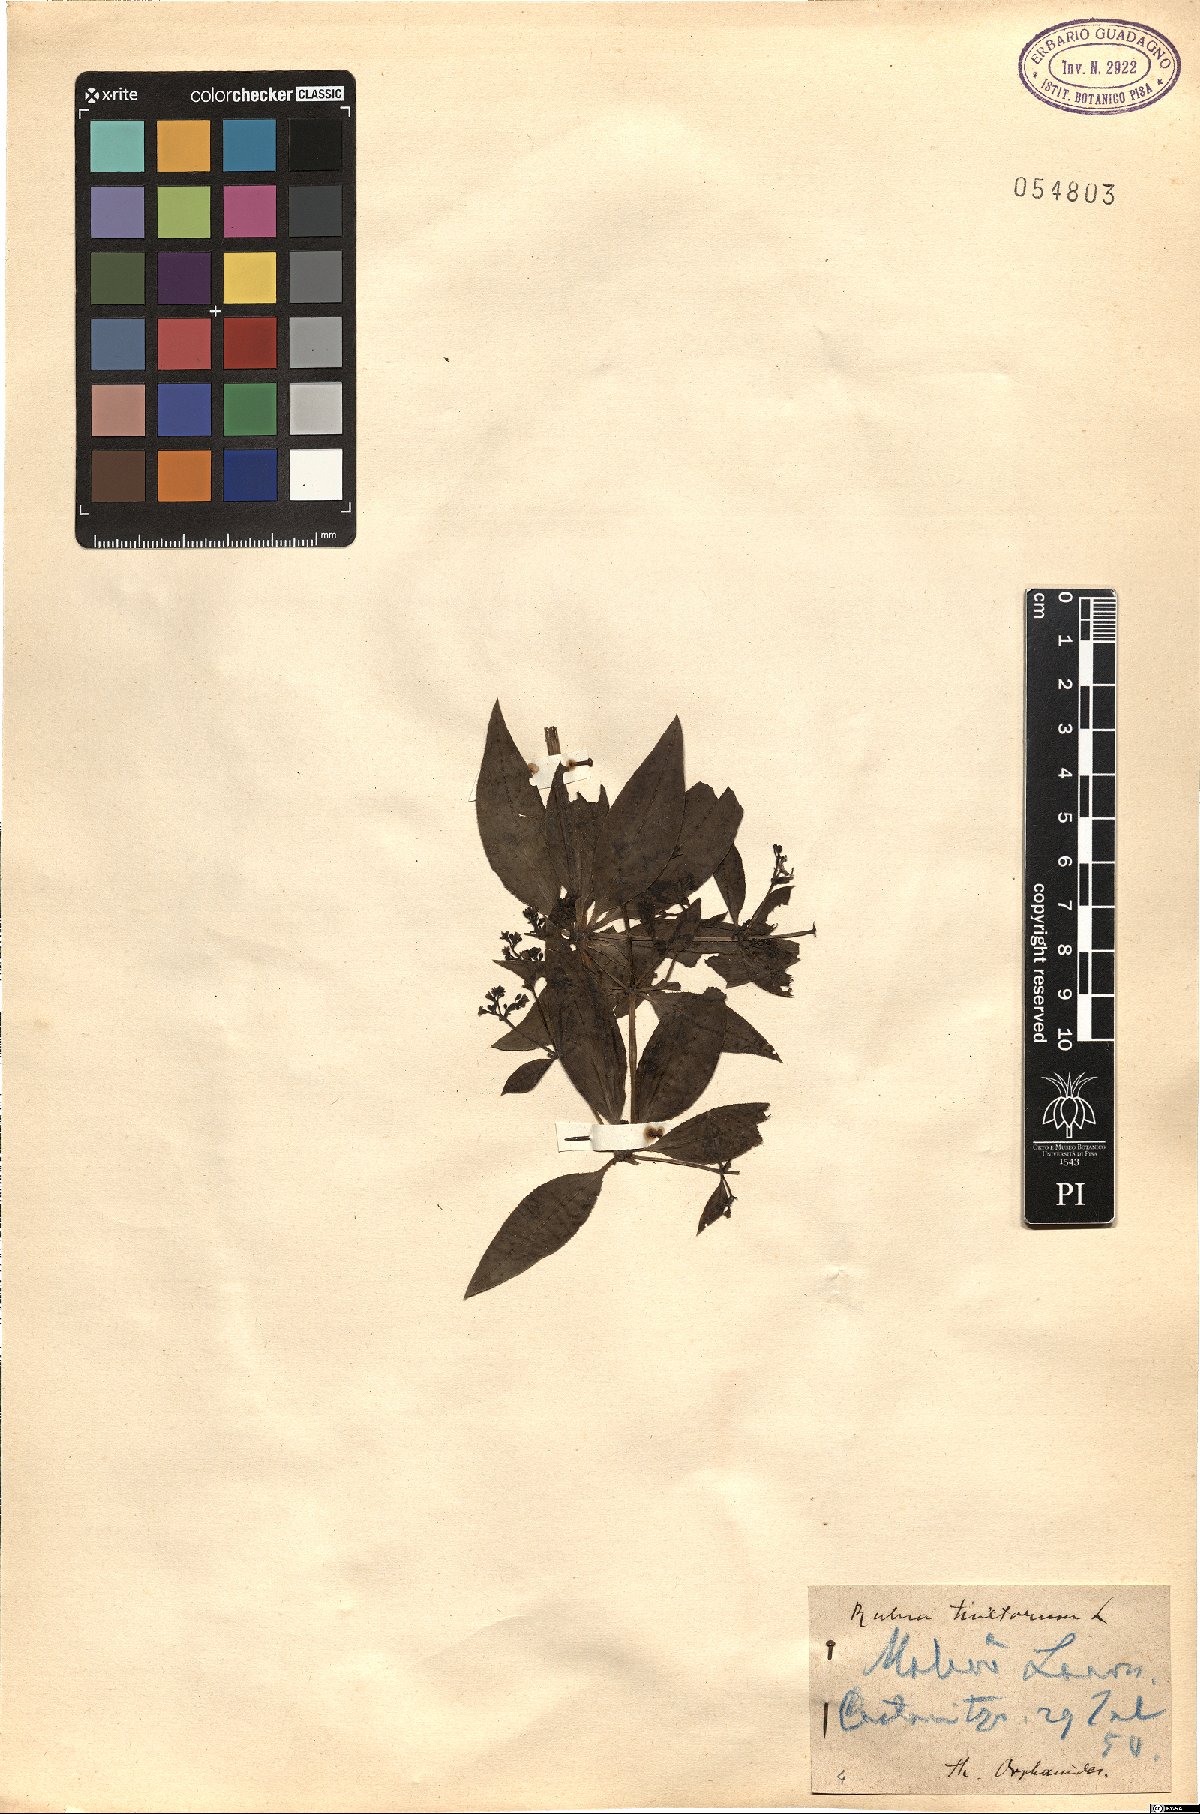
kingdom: Plantae
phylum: Tracheophyta
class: Magnoliopsida
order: Gentianales
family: Rubiaceae
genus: Rubia
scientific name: Rubia tinctorum
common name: Dyer's madder
